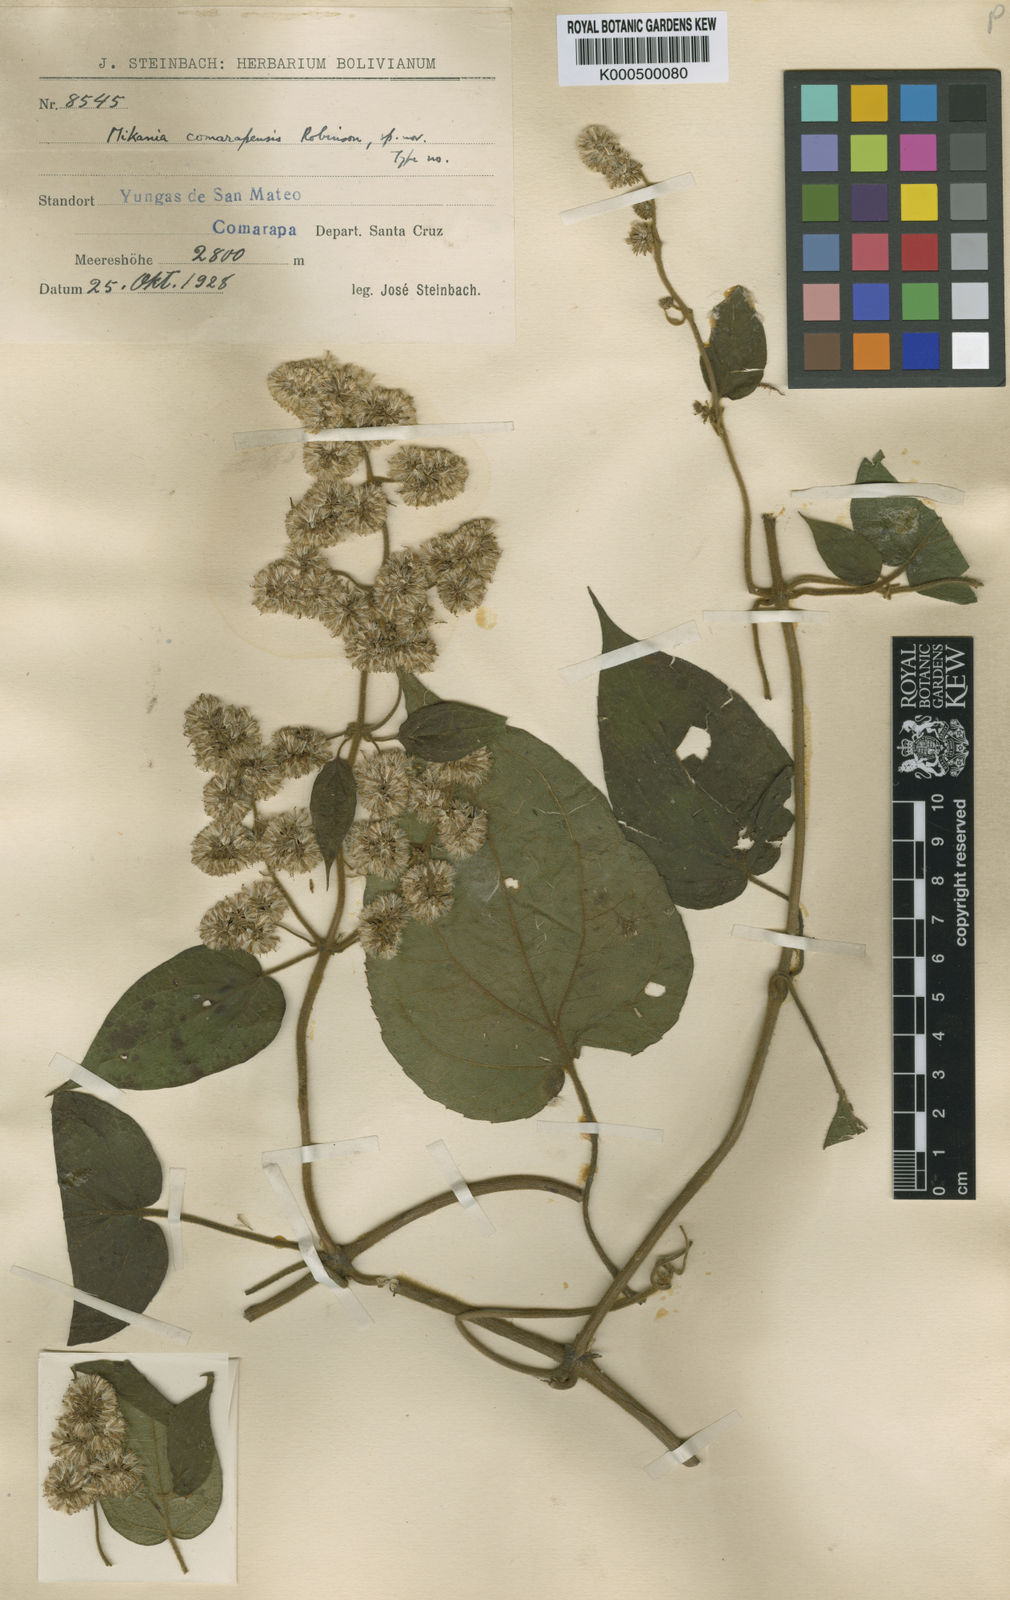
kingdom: Plantae
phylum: Tracheophyta
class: Magnoliopsida
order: Asterales
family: Asteraceae
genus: Mikania
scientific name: Mikania comarapensis
